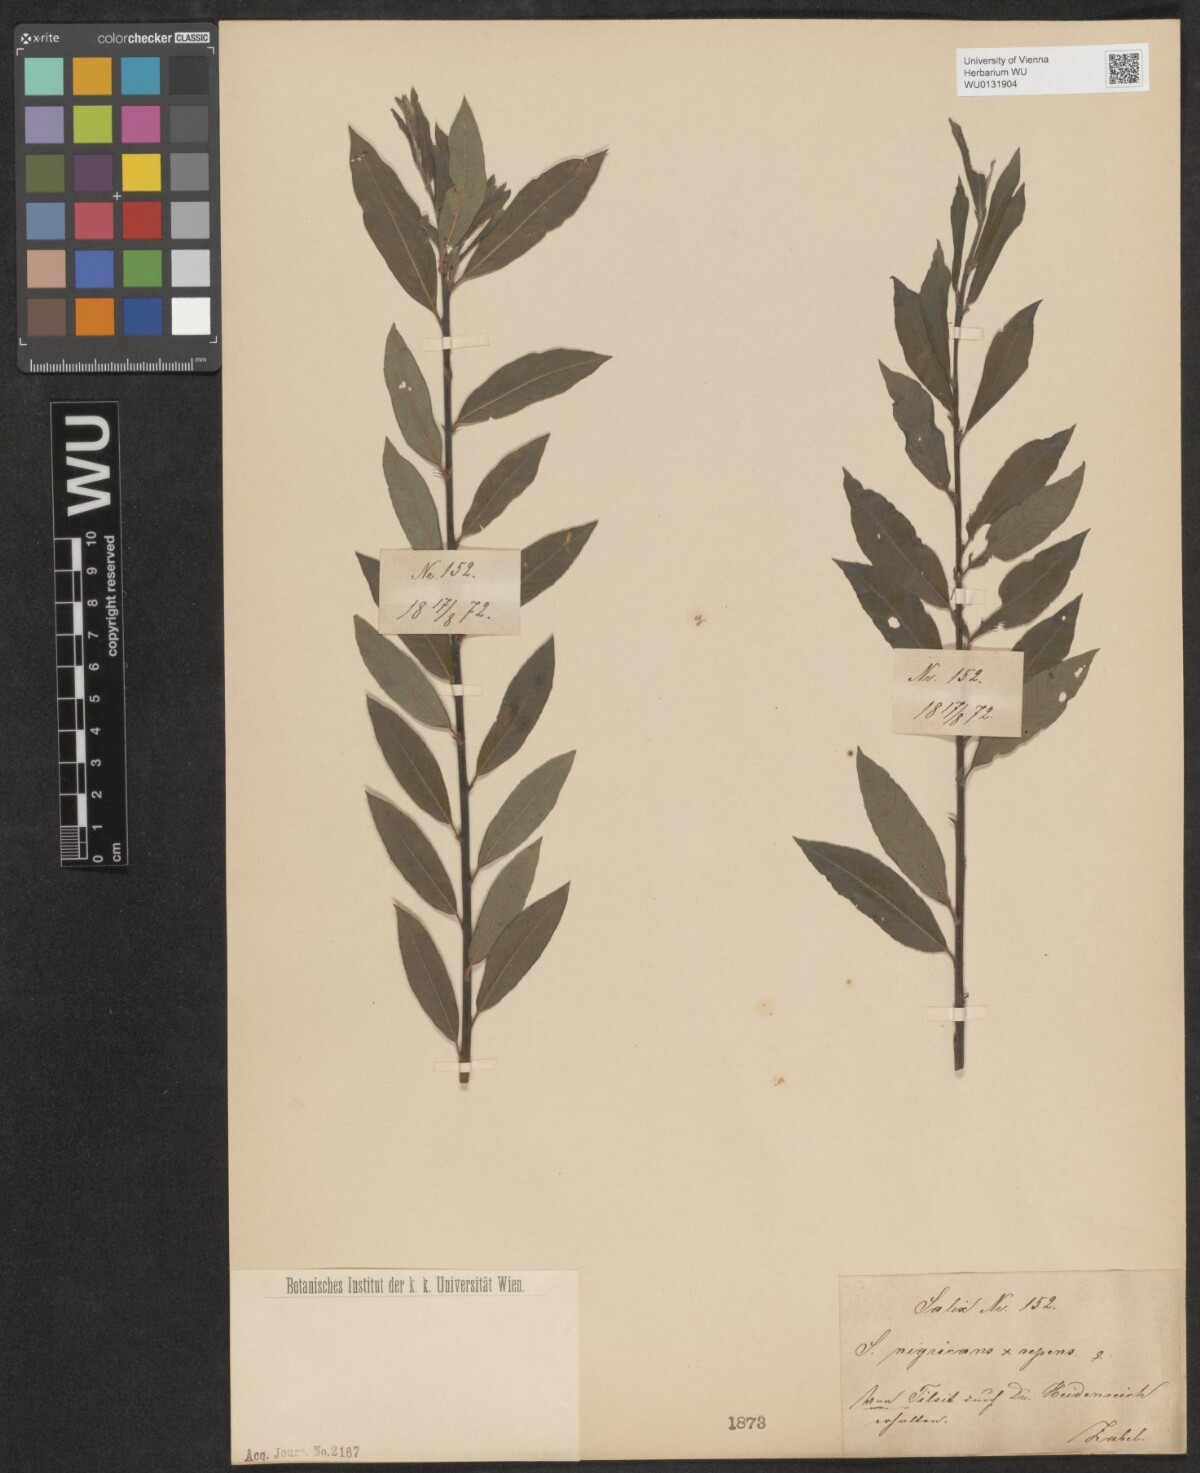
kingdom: Plantae
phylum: Tracheophyta
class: Magnoliopsida
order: Malpighiales
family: Salicaceae
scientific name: Salicaceae
